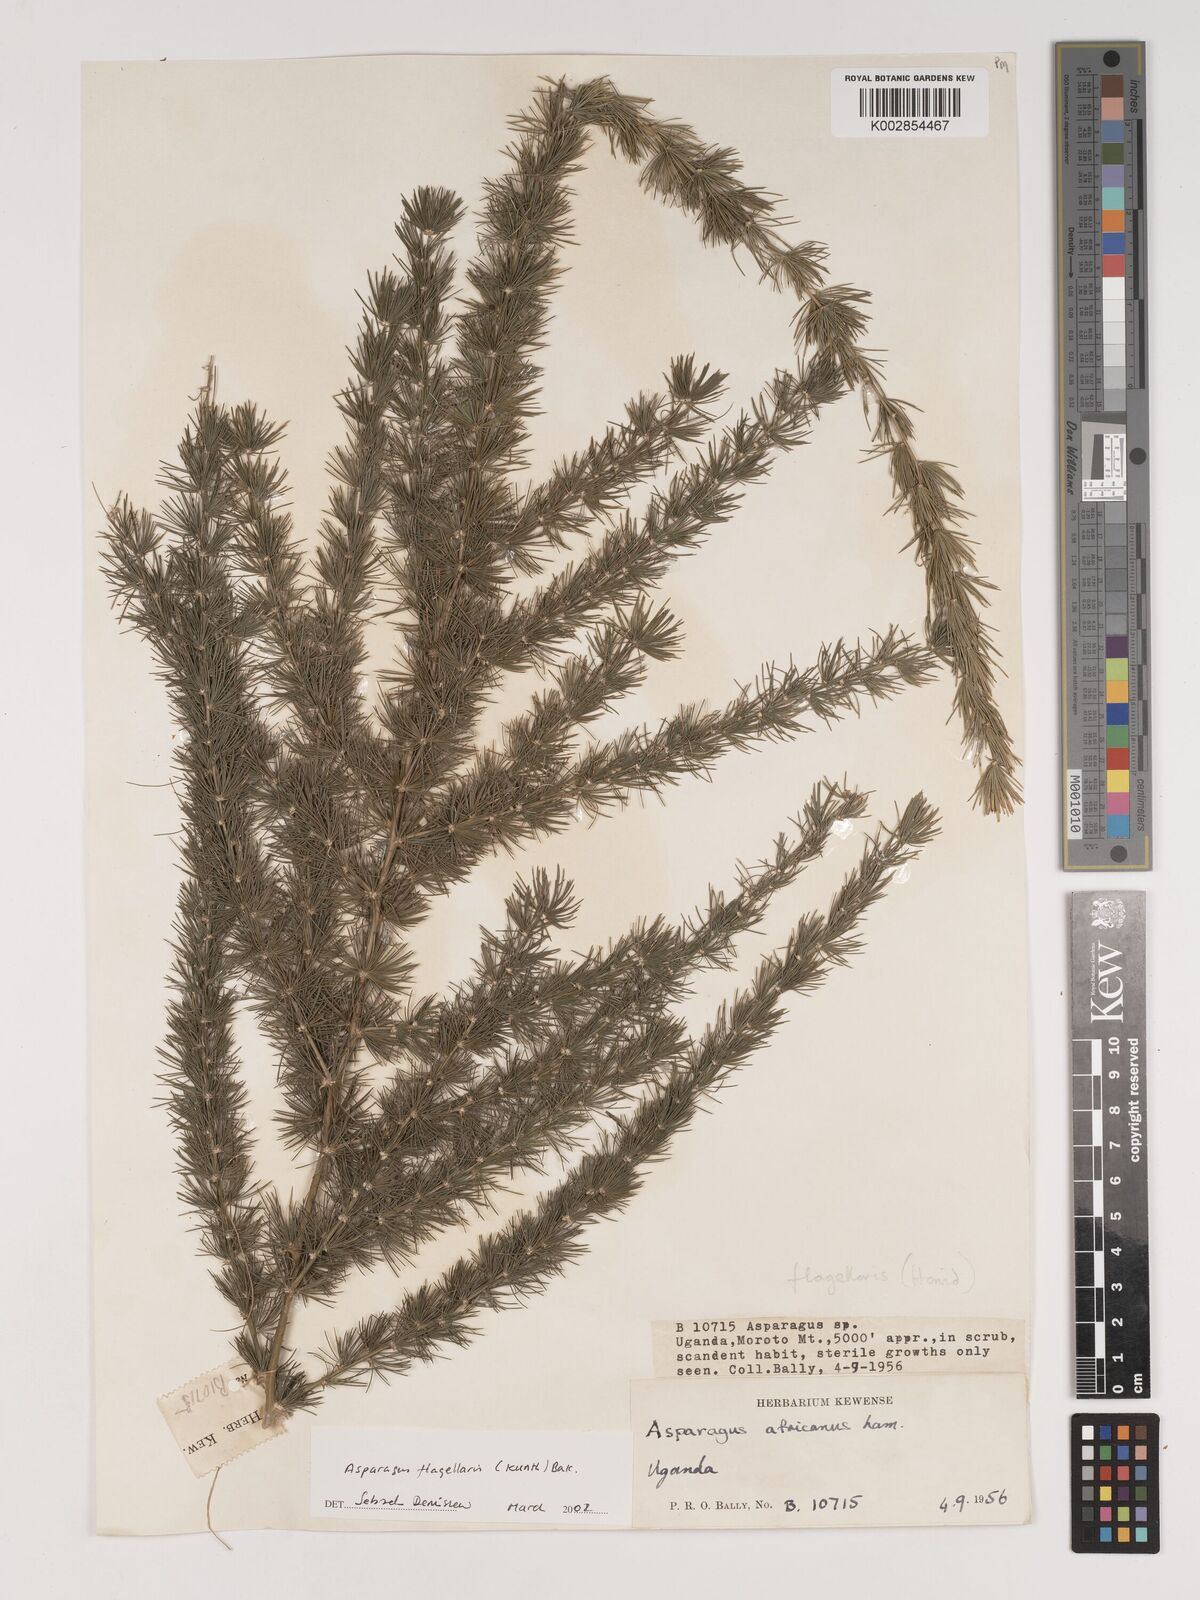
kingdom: Plantae
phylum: Tracheophyta
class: Liliopsida
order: Asparagales
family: Asparagaceae
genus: Asparagus
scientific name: Asparagus flagellaris
